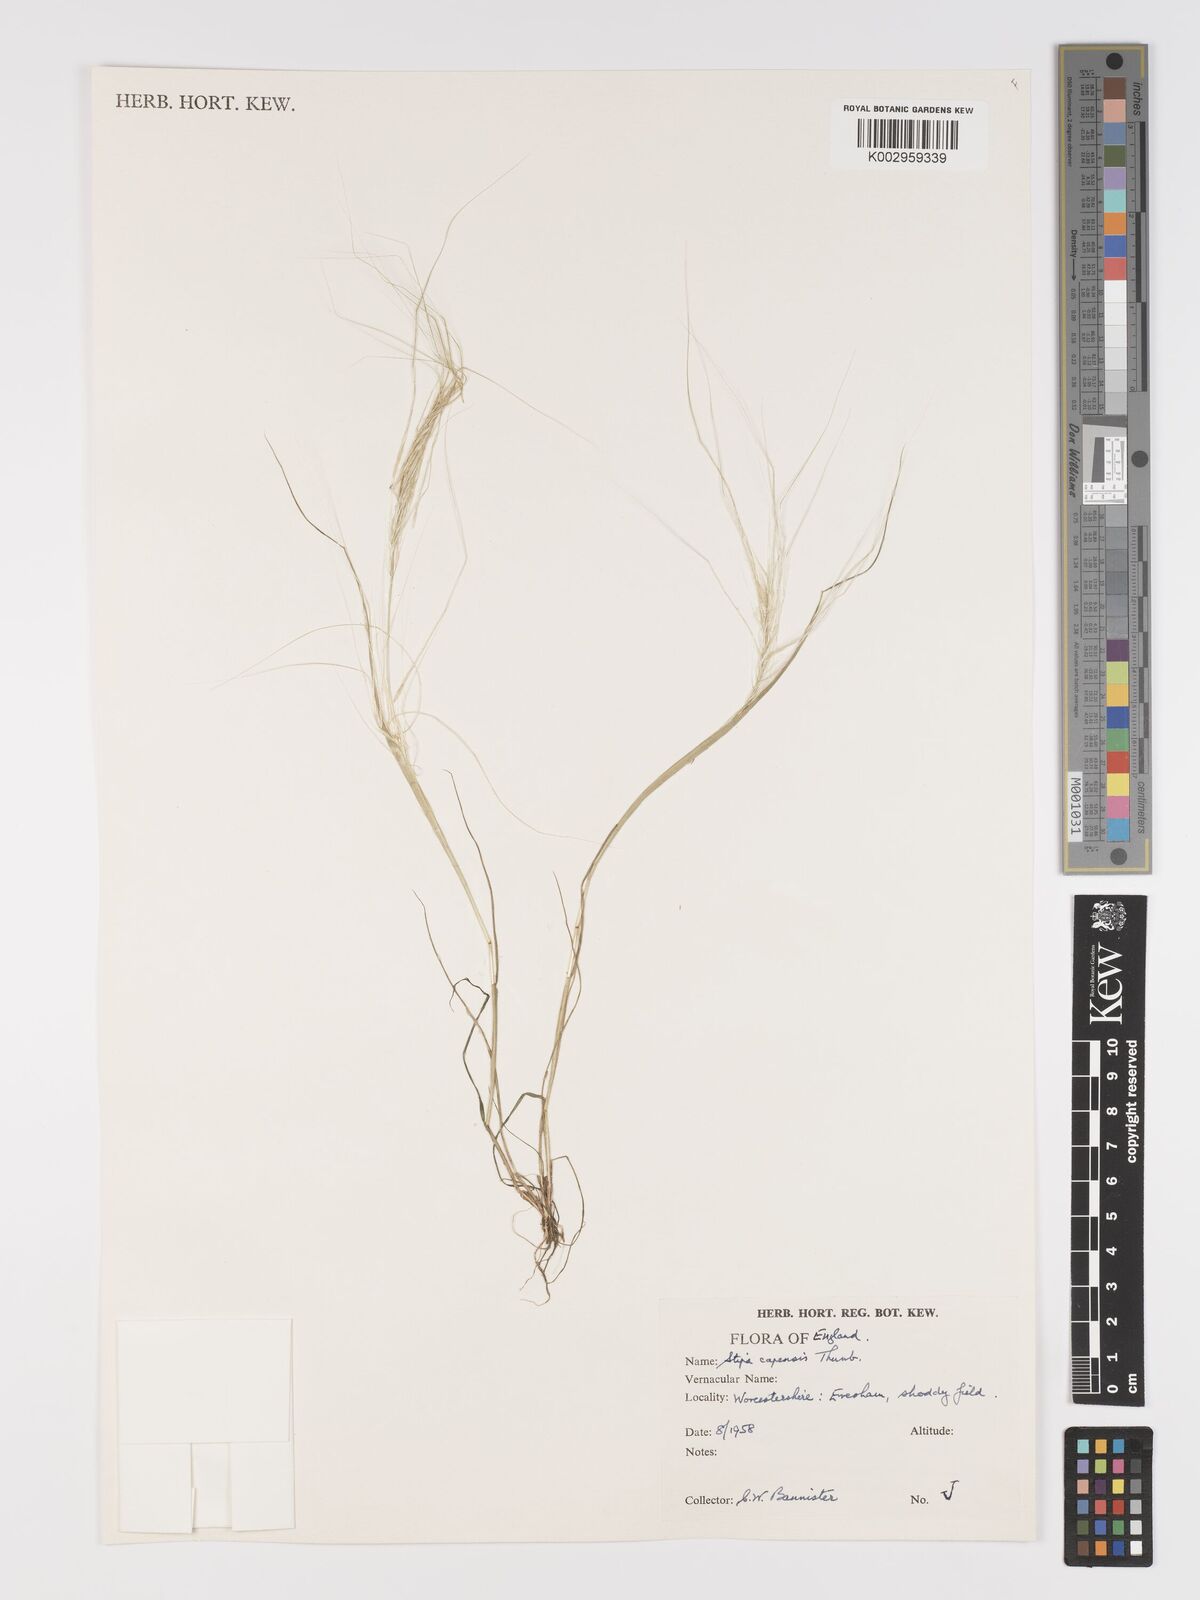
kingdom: Plantae
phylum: Tracheophyta
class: Liliopsida
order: Poales
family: Poaceae
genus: Stipellula
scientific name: Stipellula capensis
